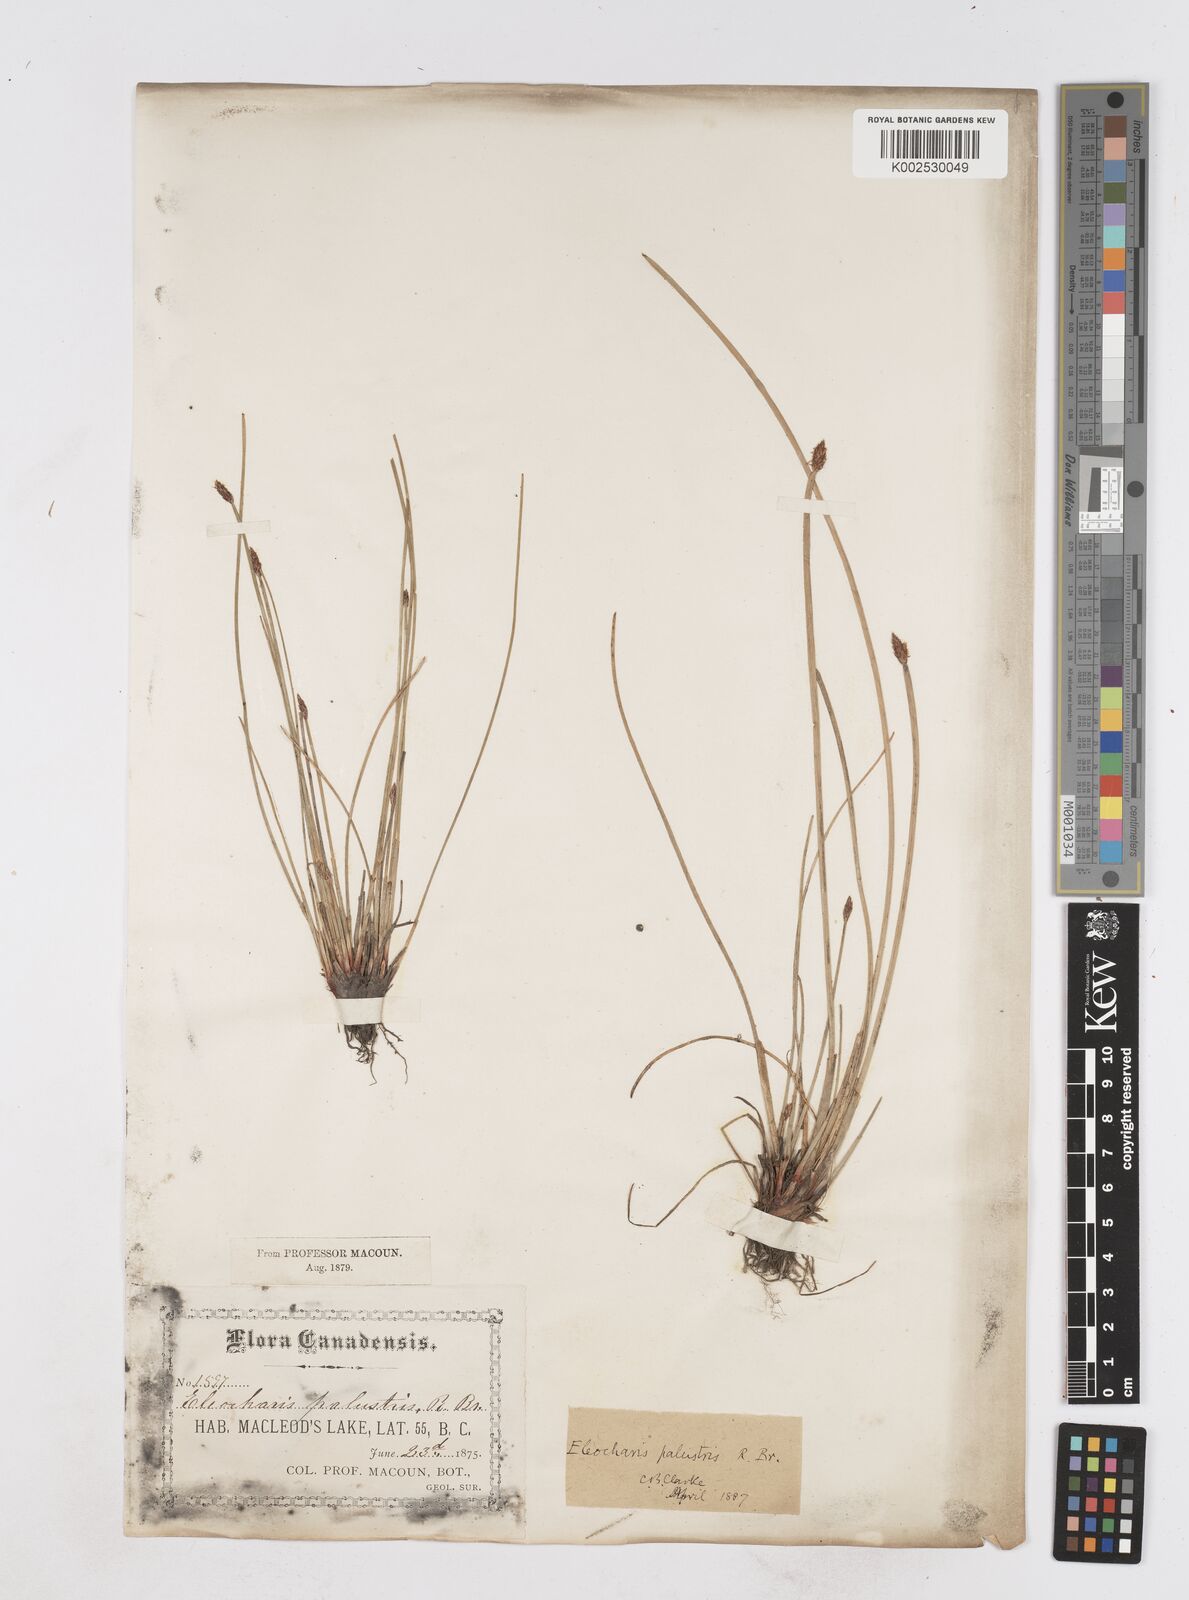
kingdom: Plantae
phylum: Tracheophyta
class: Liliopsida
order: Poales
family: Cyperaceae
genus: Eleocharis
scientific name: Eleocharis palustris
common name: Common spike-rush
